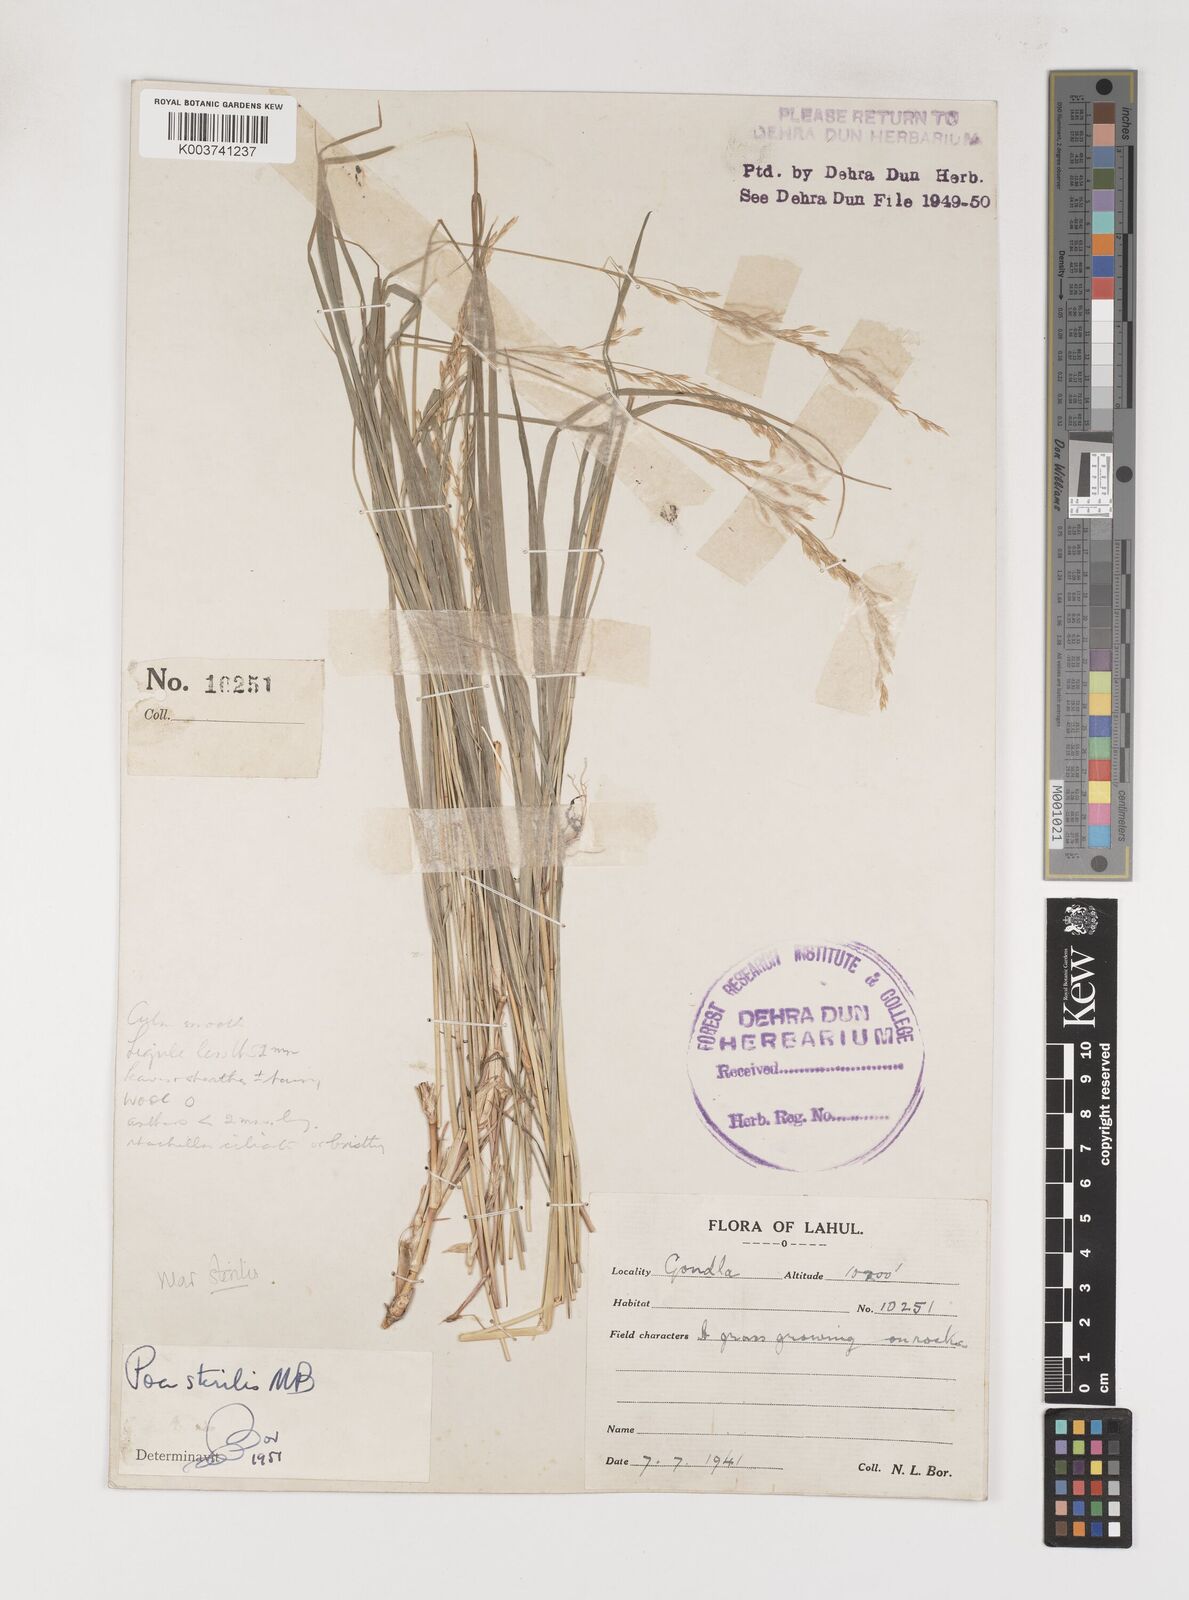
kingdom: Plantae
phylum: Tracheophyta
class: Liliopsida
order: Poales
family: Poaceae
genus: Poa
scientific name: Poa araratica
